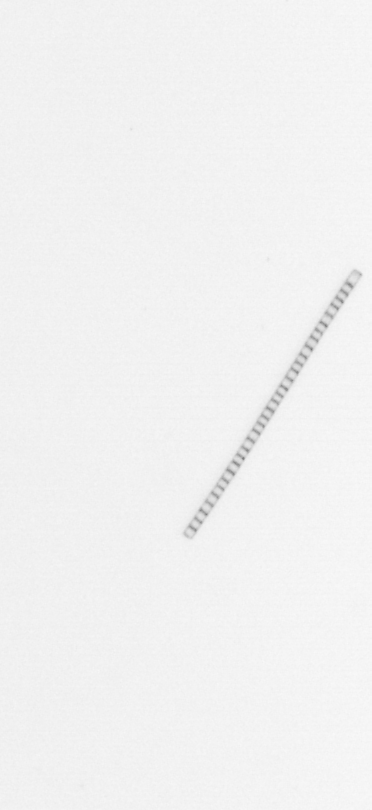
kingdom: Chromista
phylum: Ochrophyta
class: Bacillariophyceae
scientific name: Bacillariophyceae
